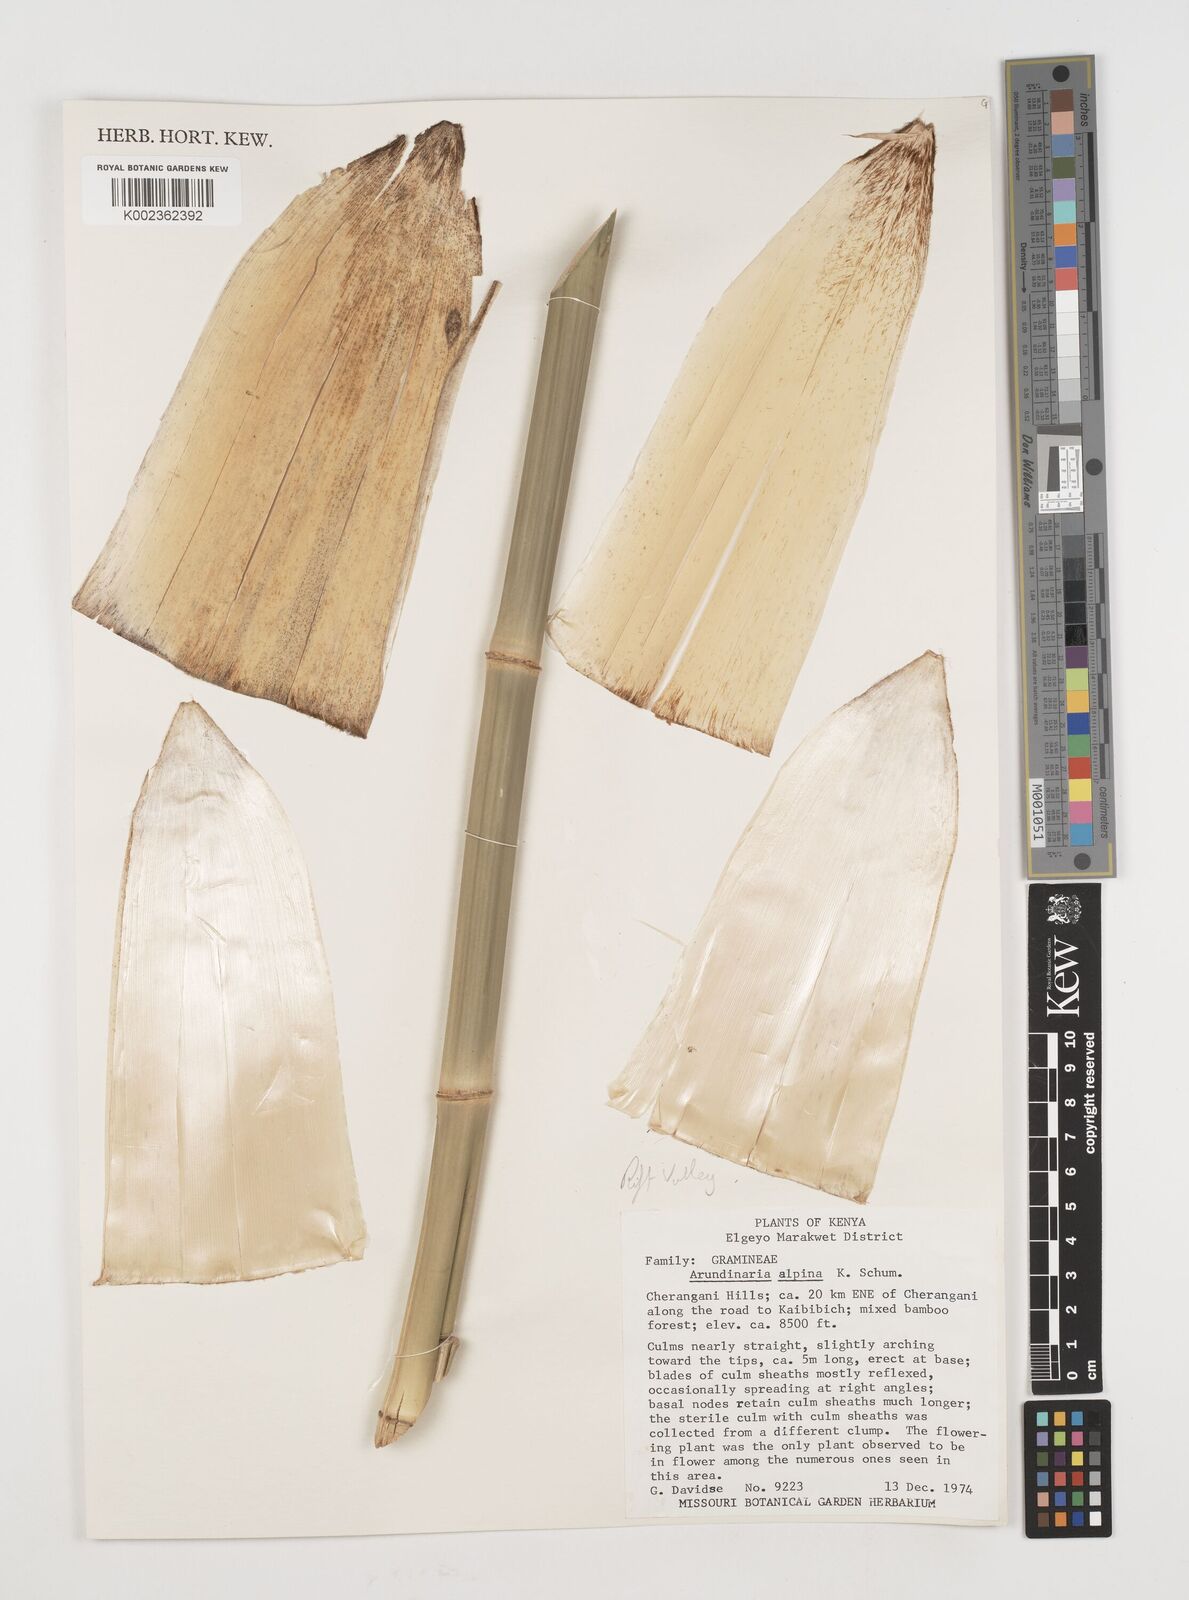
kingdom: Plantae
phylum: Tracheophyta
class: Liliopsida
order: Poales
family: Poaceae
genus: Oldeania
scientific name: Oldeania alpina
